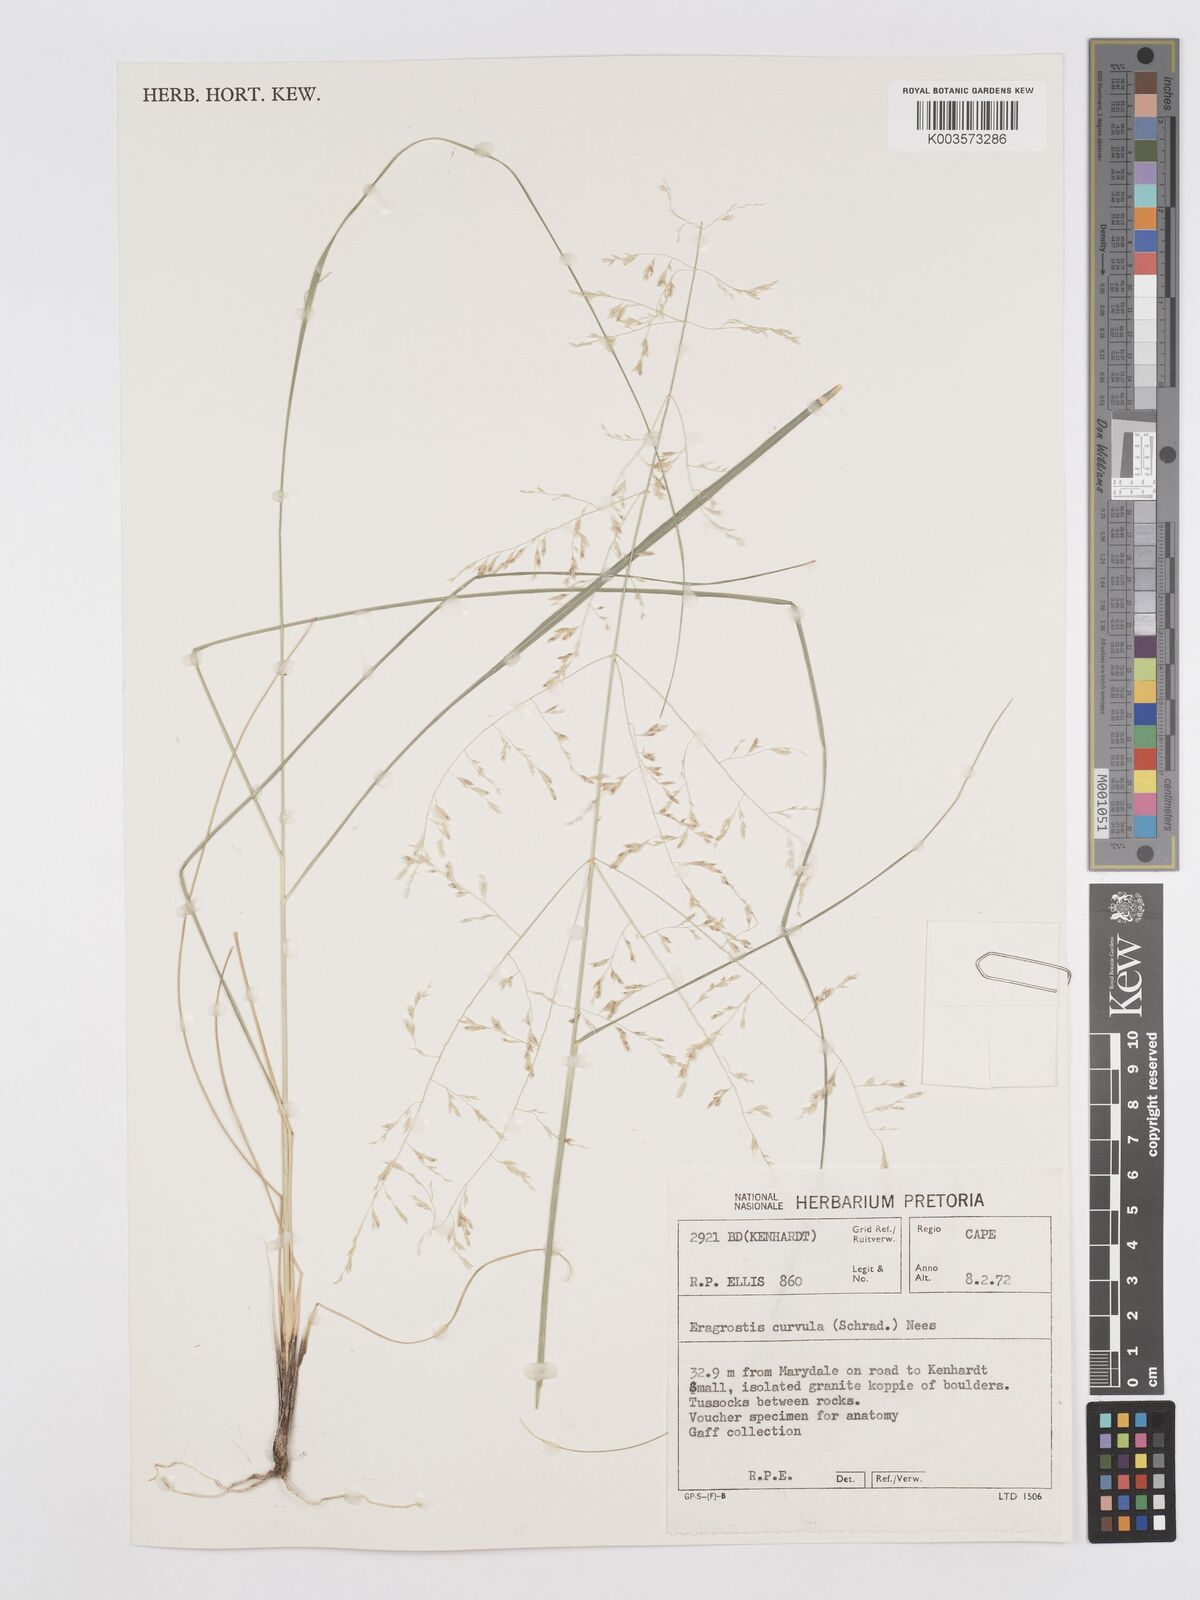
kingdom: Plantae
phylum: Tracheophyta
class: Liliopsida
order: Poales
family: Poaceae
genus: Eragrostis
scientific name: Eragrostis curvula
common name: African love-grass
